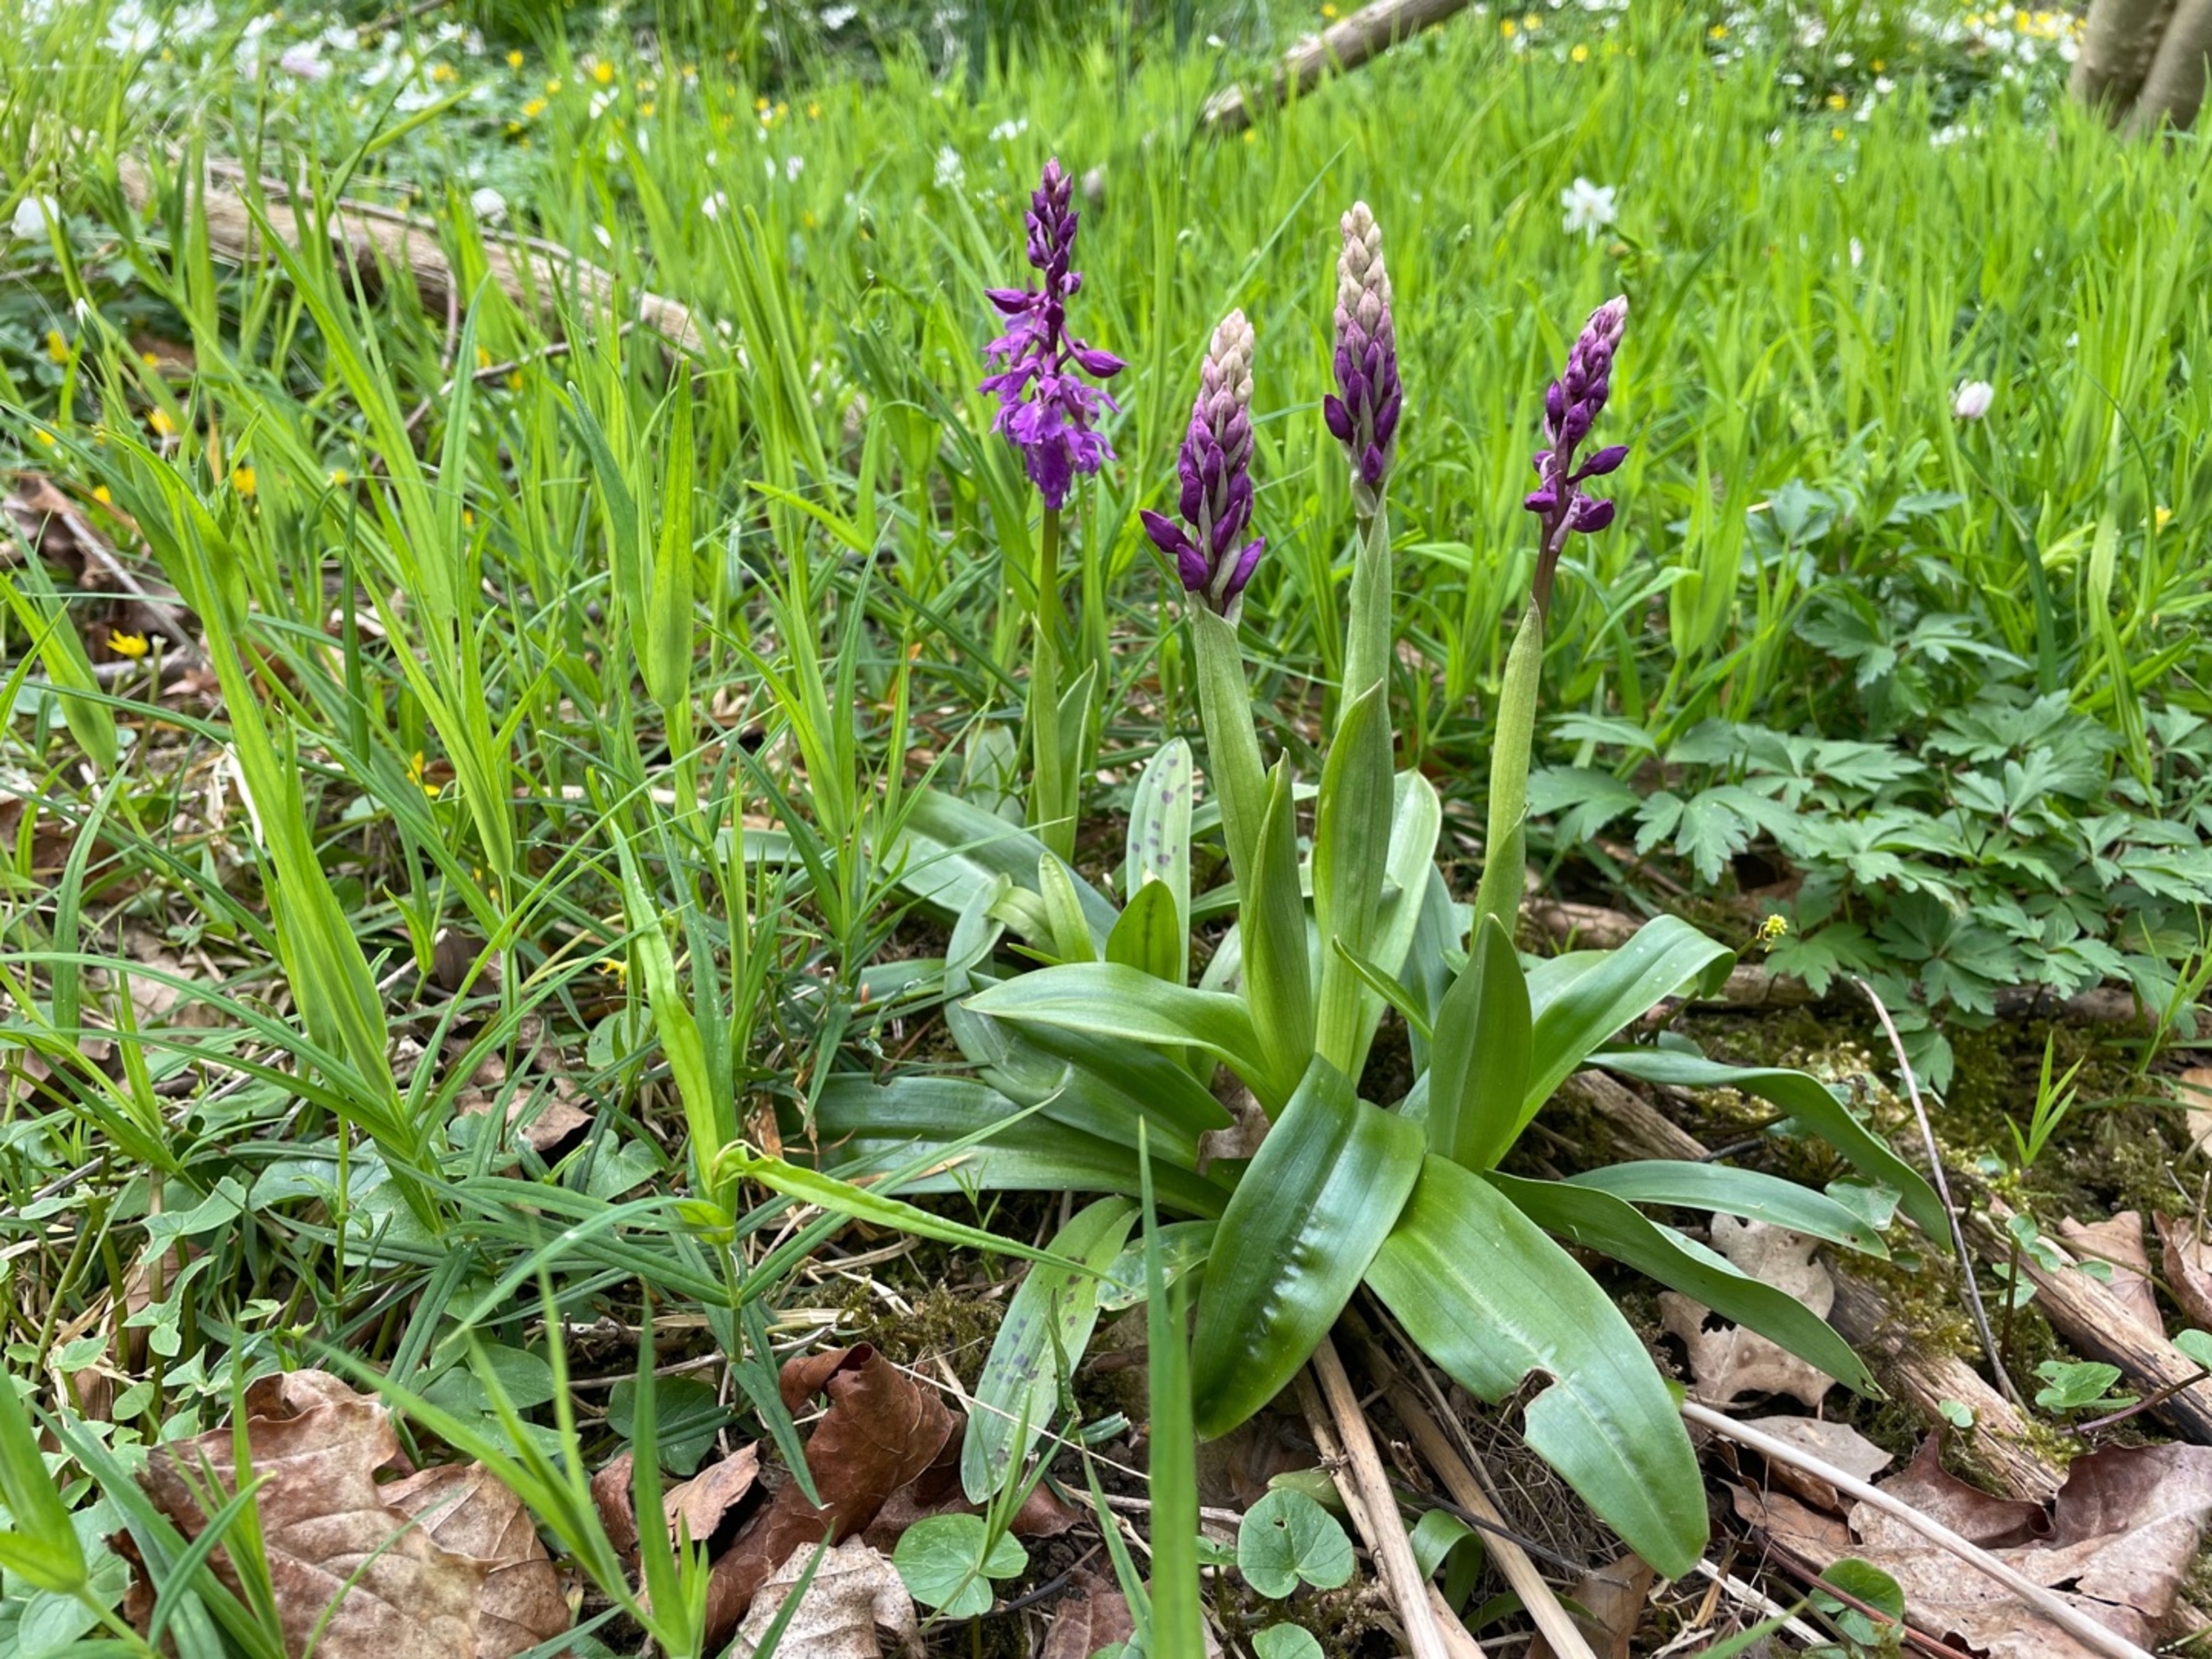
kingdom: Plantae
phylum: Tracheophyta
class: Liliopsida
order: Asparagales
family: Orchidaceae
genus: Orchis
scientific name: Orchis mascula
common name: Tyndakset gøgeurt
